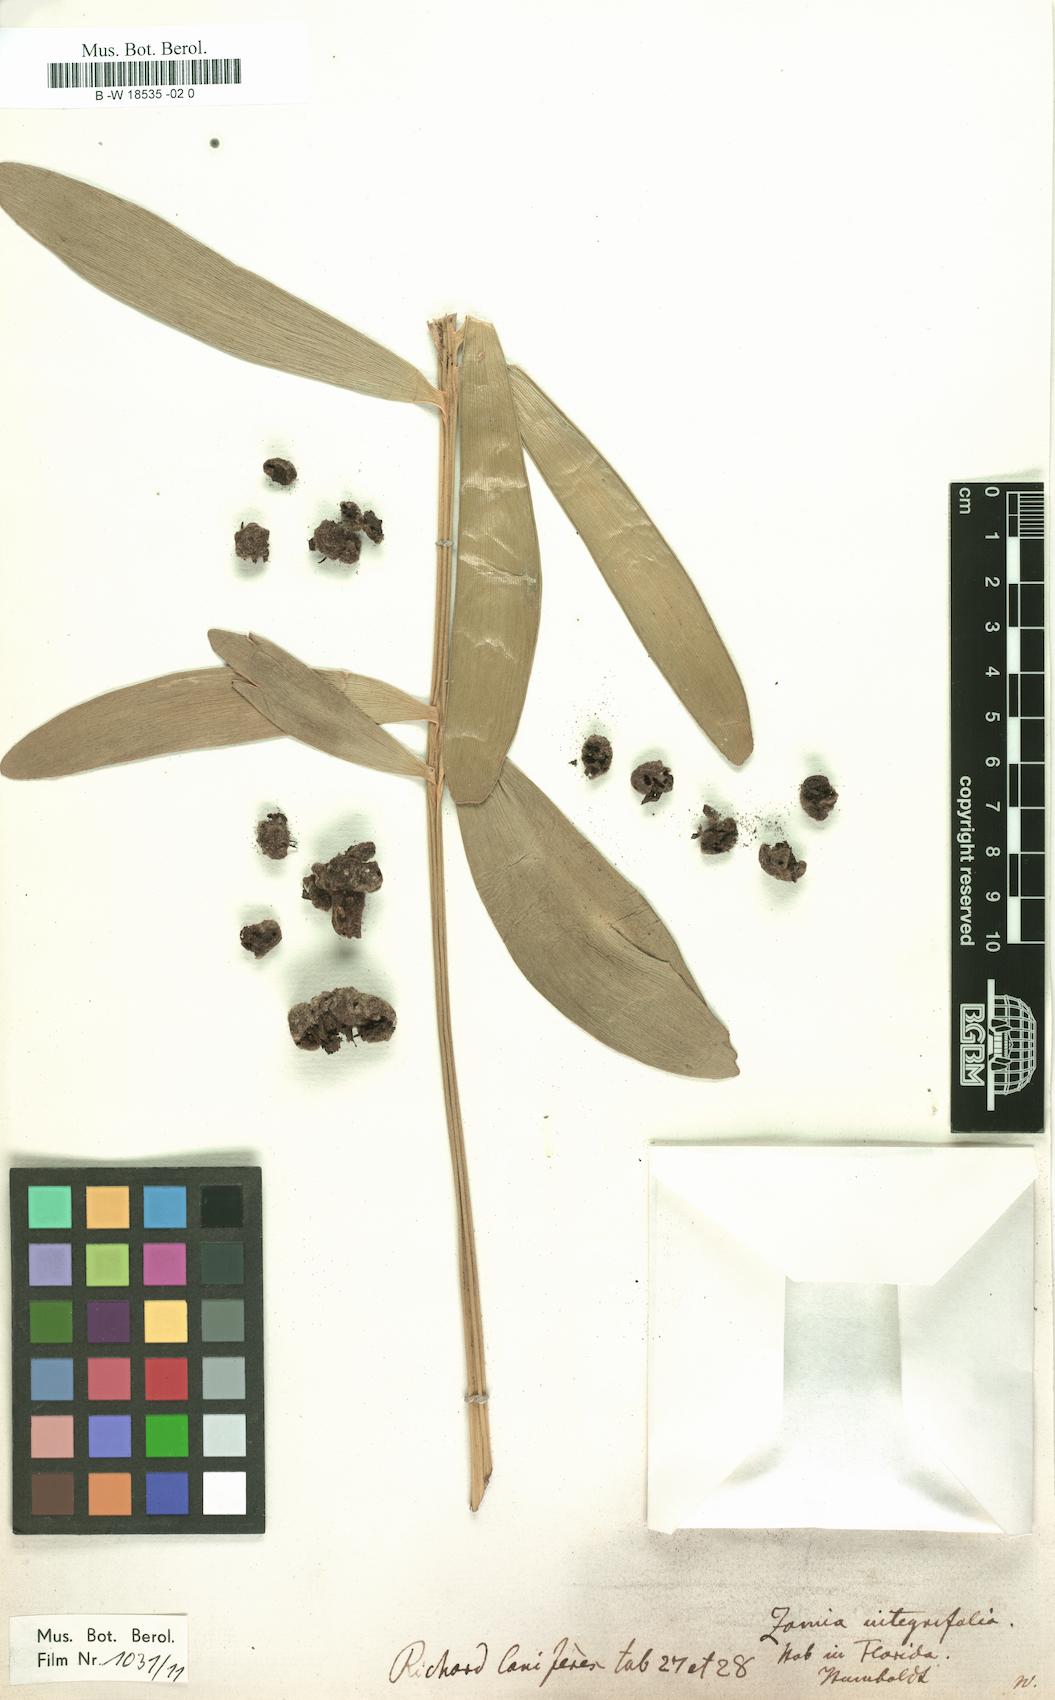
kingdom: Plantae
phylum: Tracheophyta
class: Cycadopsida
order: Cycadales
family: Zamiaceae
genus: Zamia
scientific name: Zamia integrifolia
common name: Florida arrowroot
